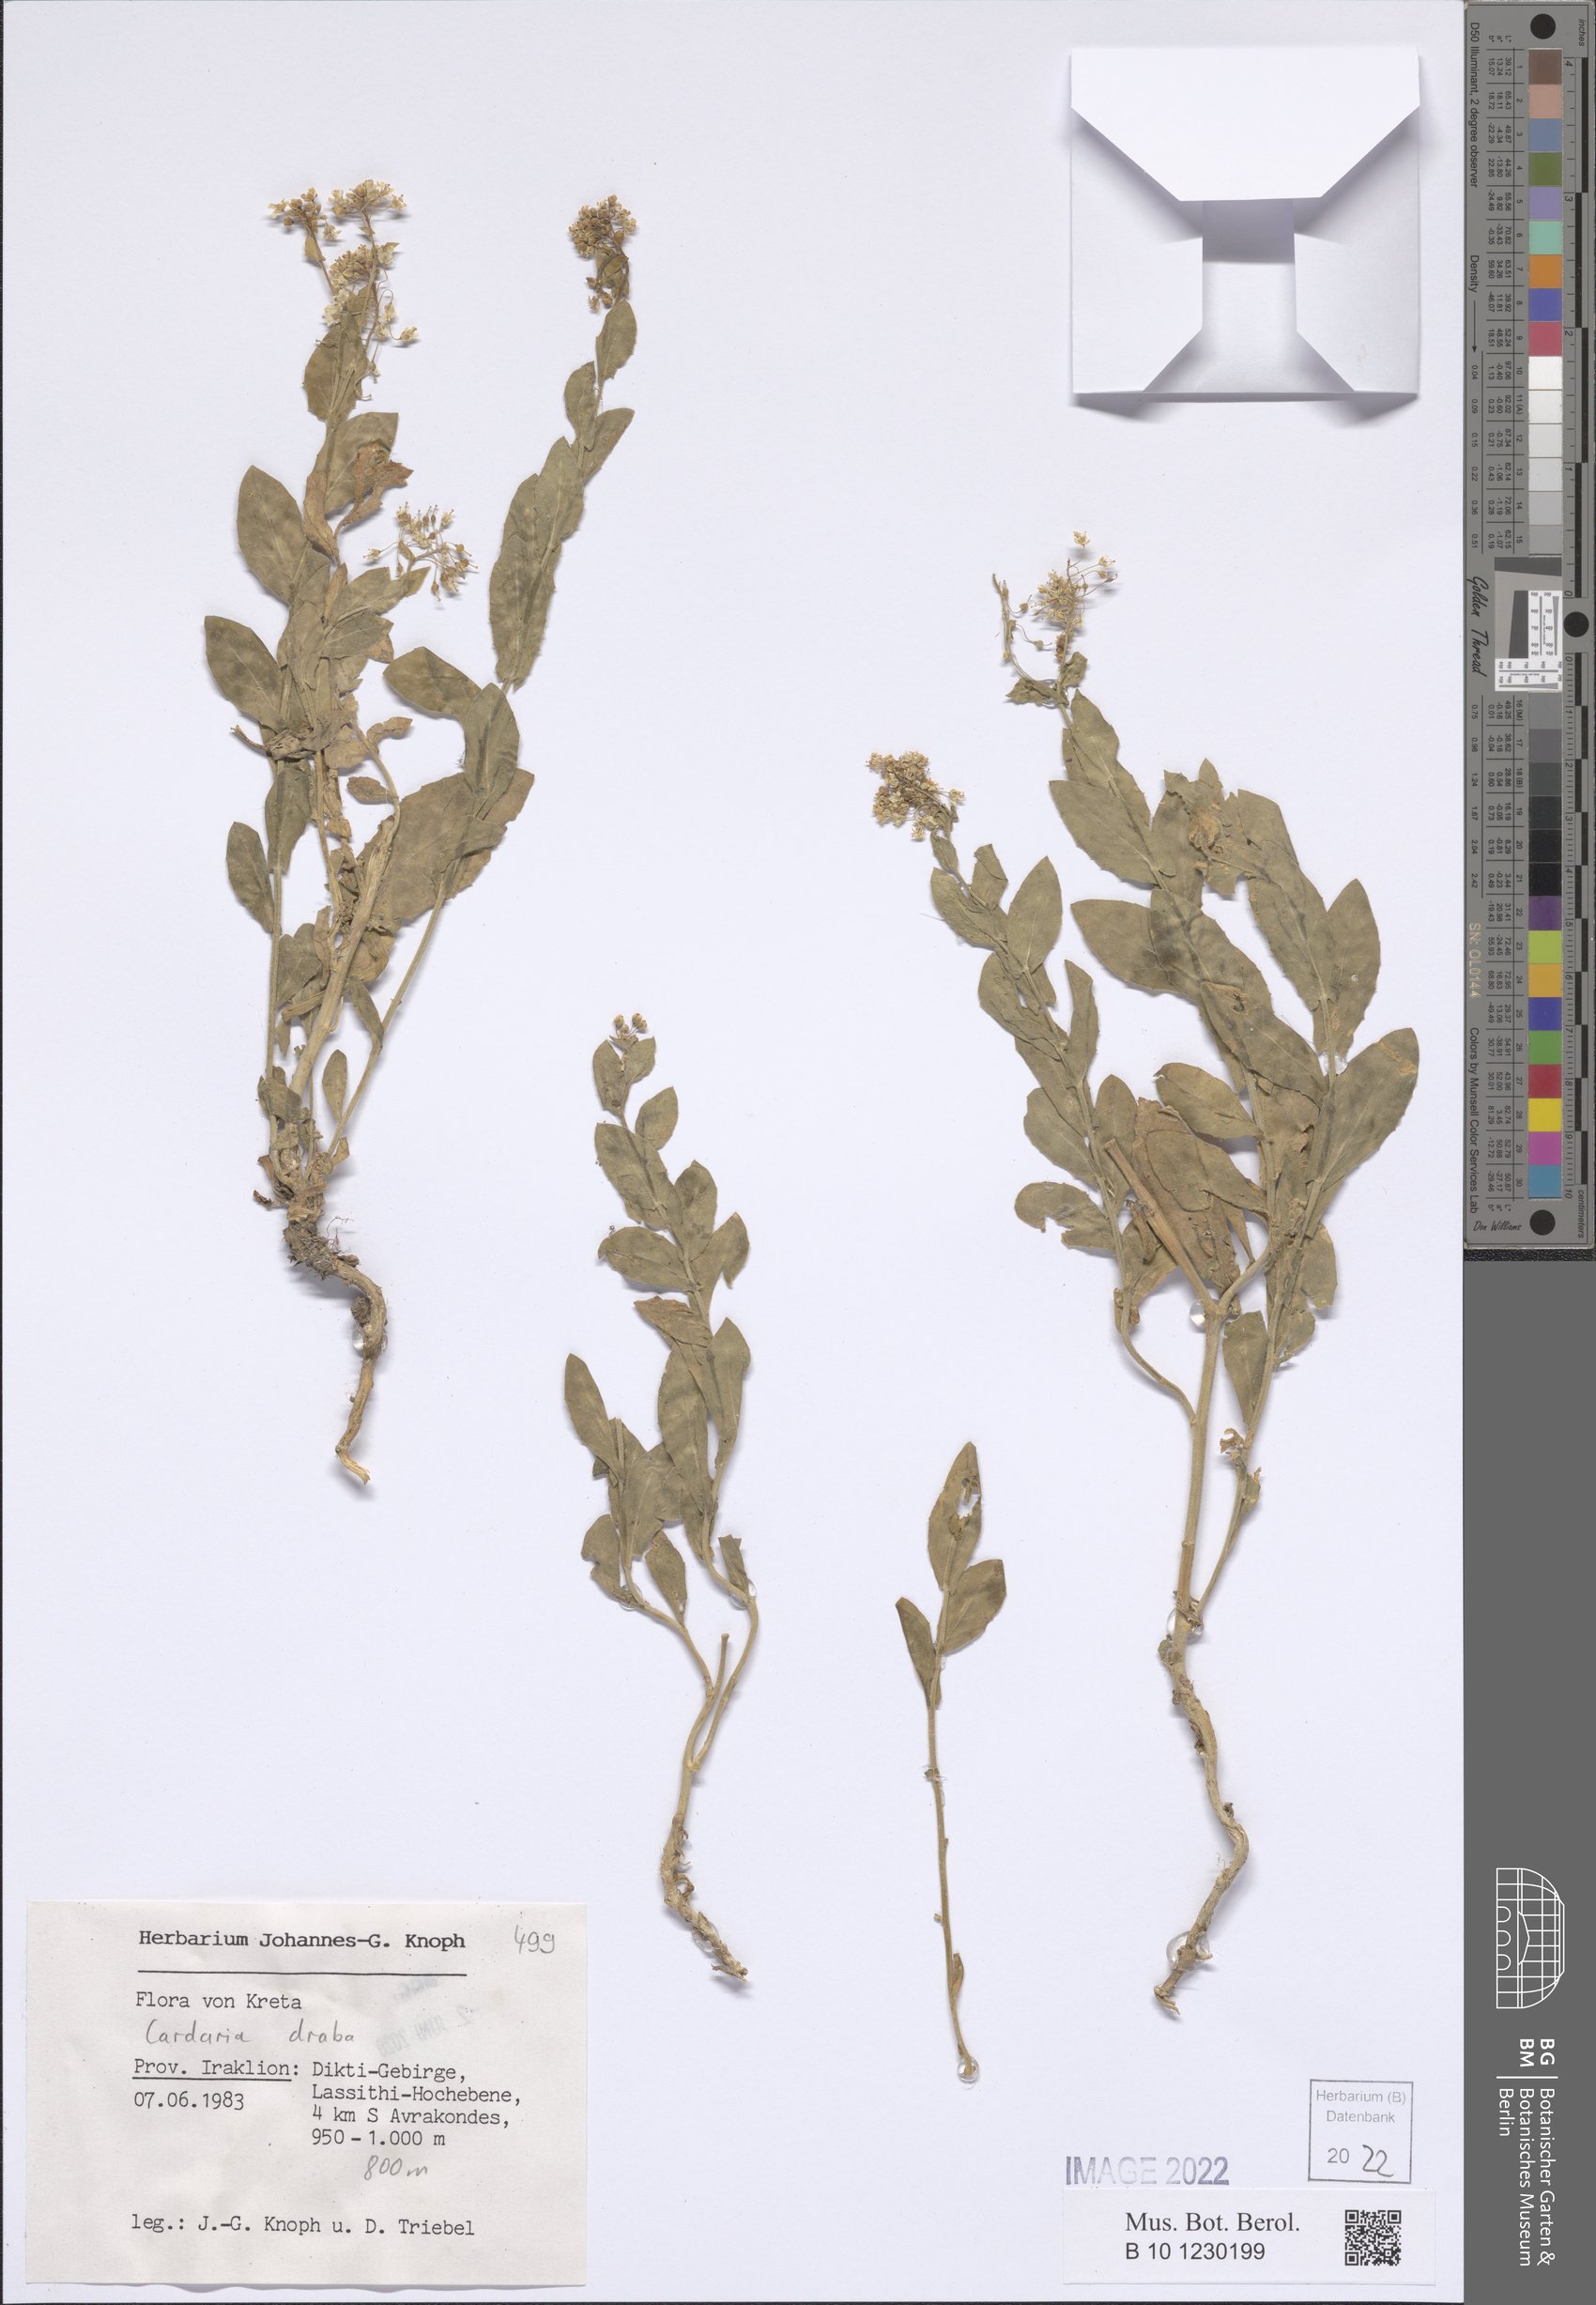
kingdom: Plantae
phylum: Tracheophyta
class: Magnoliopsida
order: Brassicales
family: Brassicaceae
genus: Lepidium
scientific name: Lepidium draba
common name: Hoary cress
